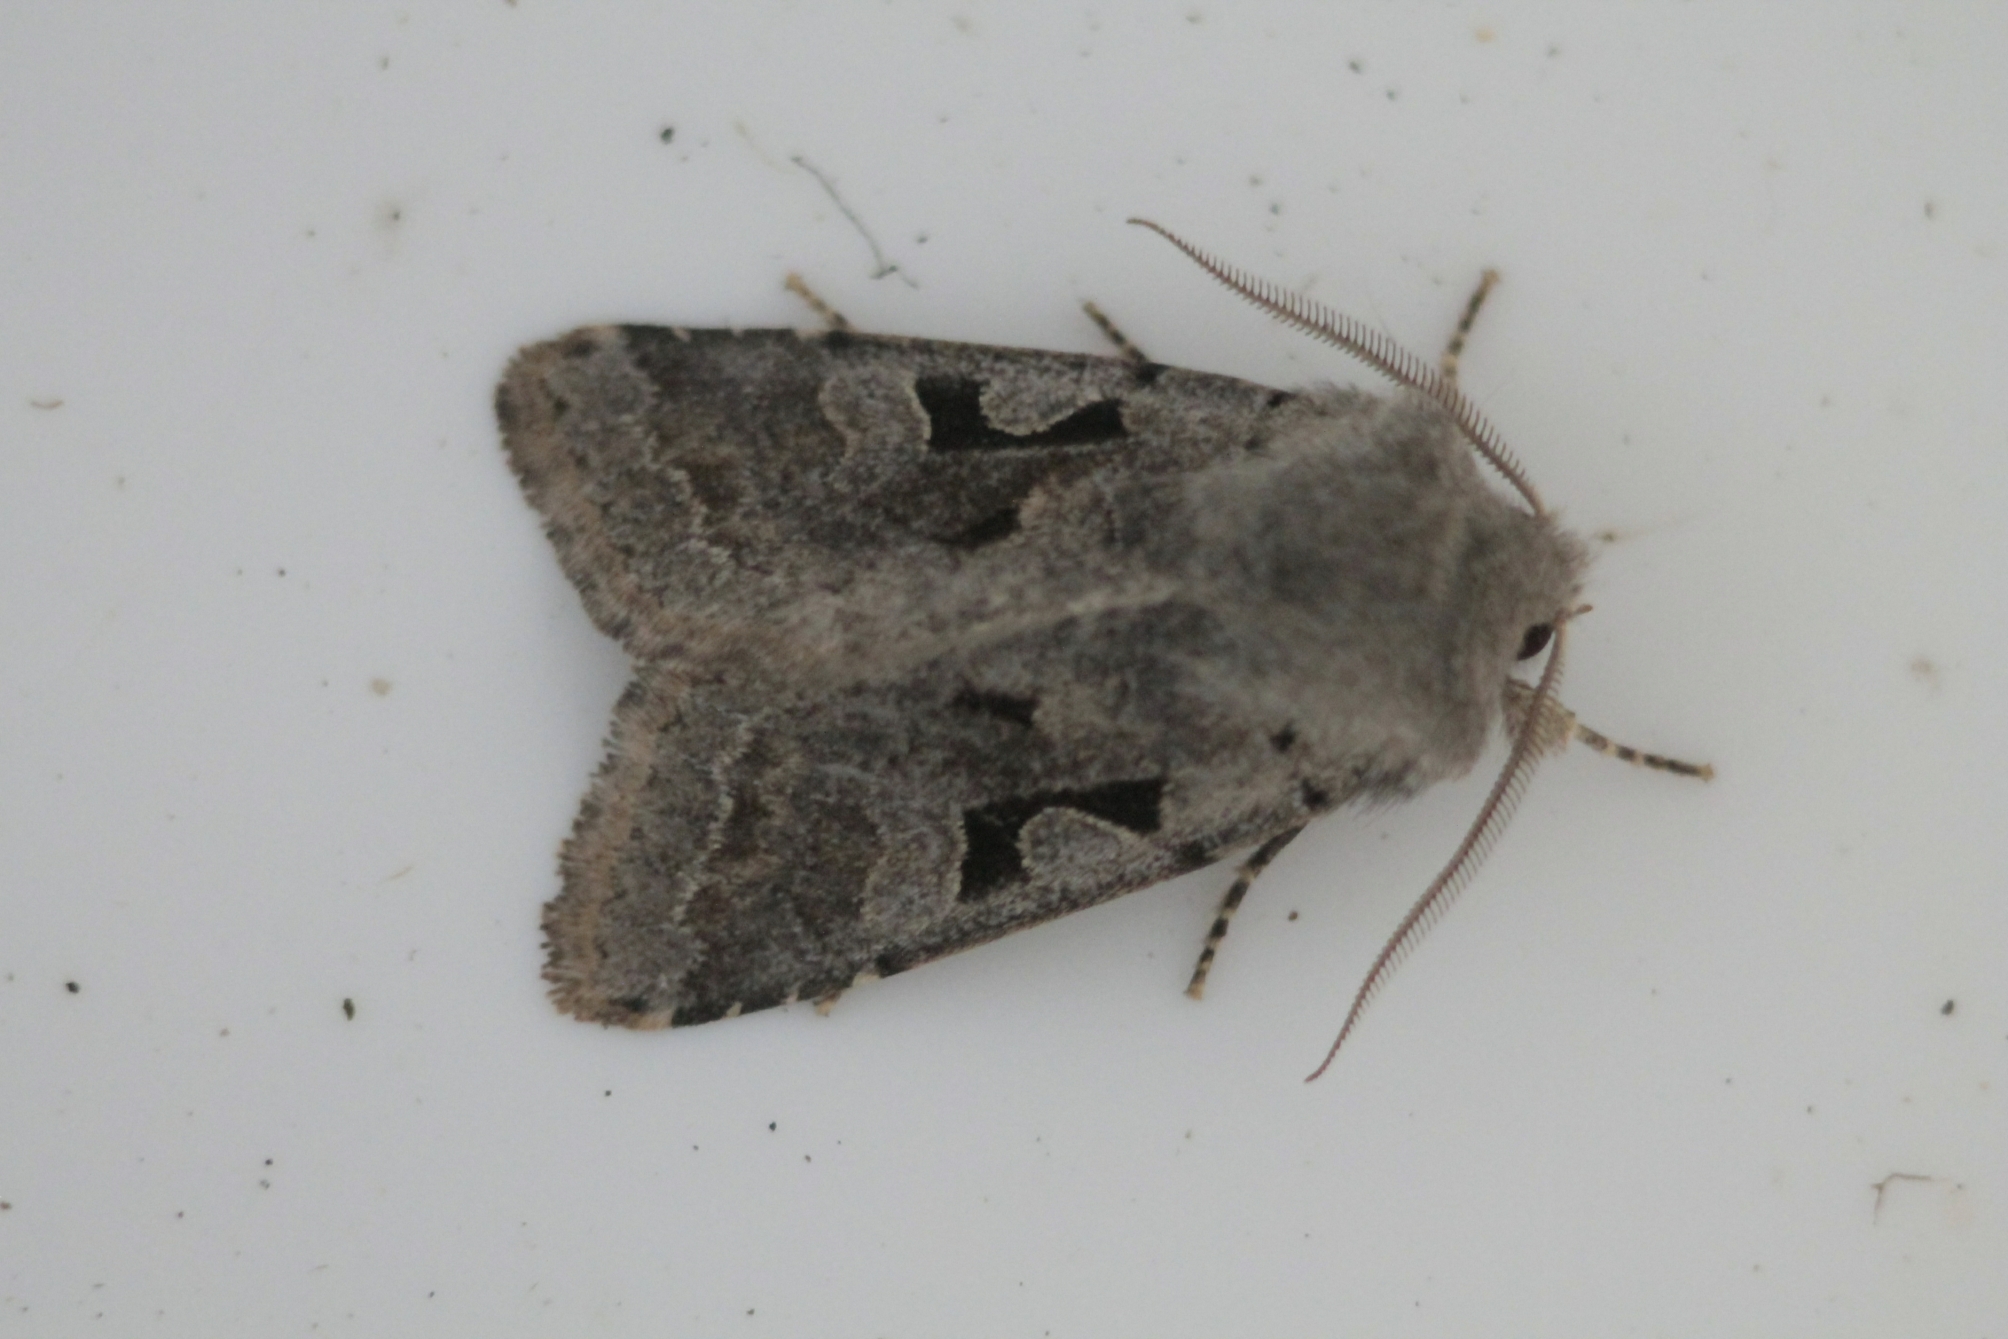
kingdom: Animalia
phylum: Arthropoda
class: Insecta
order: Lepidoptera
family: Noctuidae
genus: Orthosia
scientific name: Orthosia gothica
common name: Hebrew character
